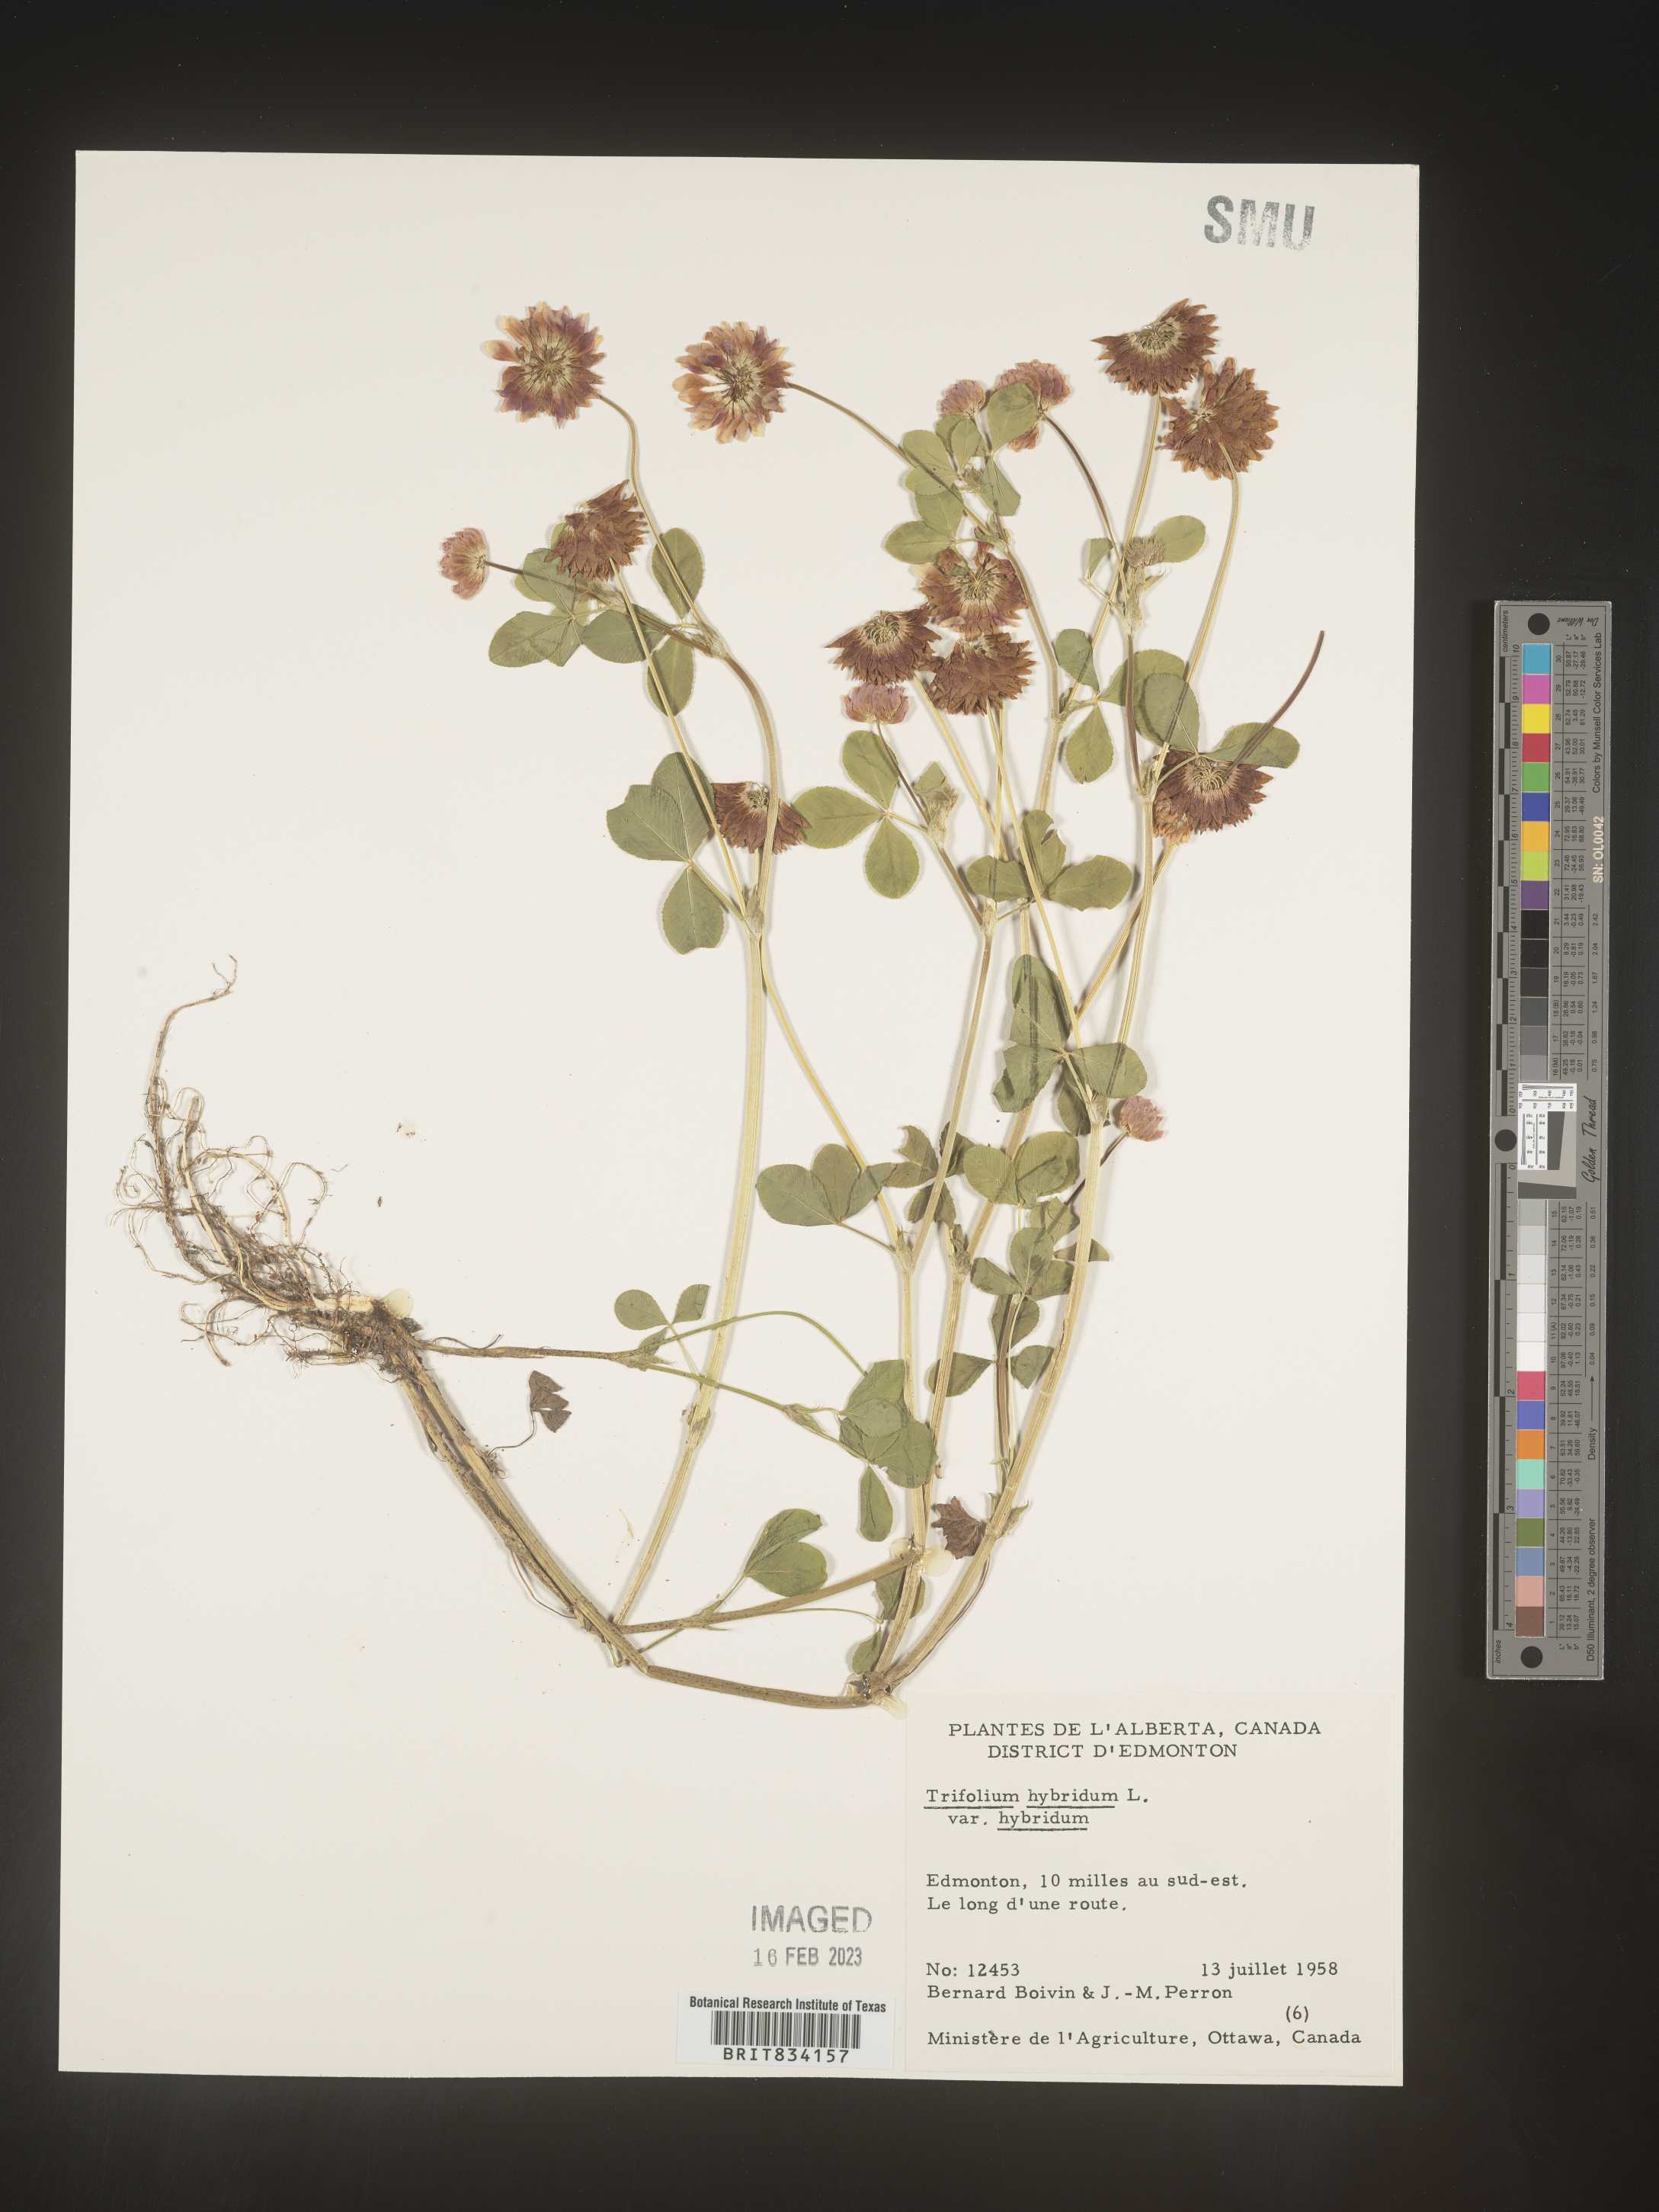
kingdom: Plantae
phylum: Tracheophyta
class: Magnoliopsida
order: Fabales
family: Fabaceae
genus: Trifolium
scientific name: Trifolium hybridum
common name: Alsike clover
